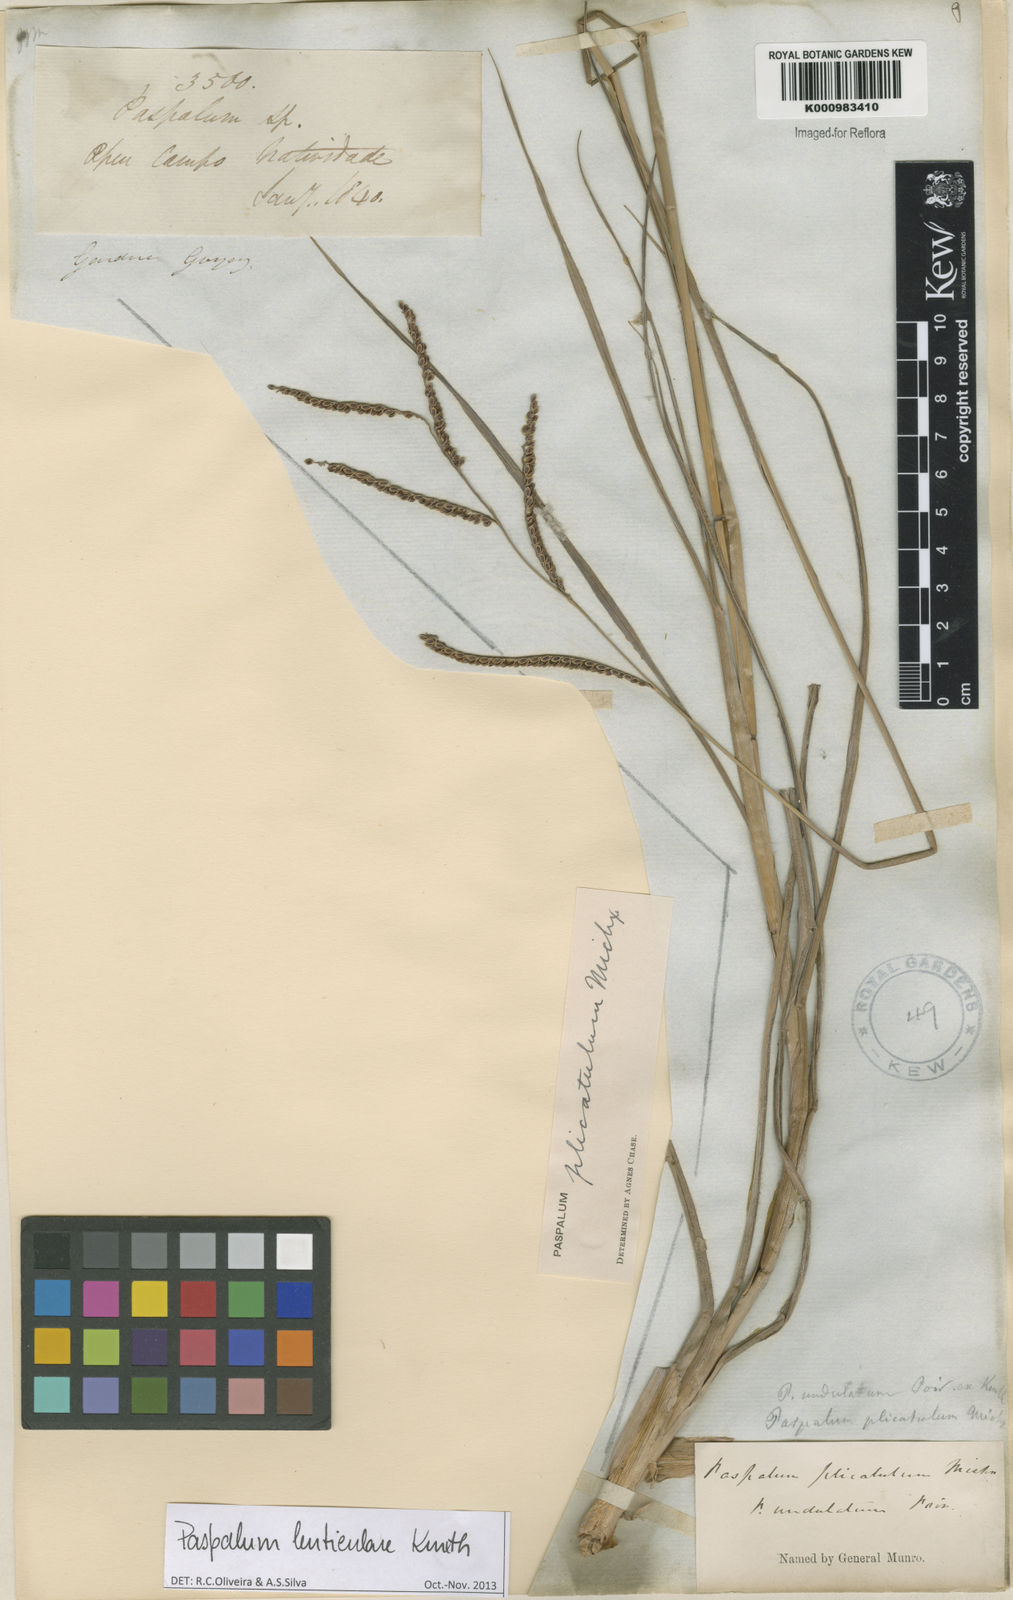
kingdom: Plantae
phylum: Tracheophyta
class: Liliopsida
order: Poales
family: Poaceae
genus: Paspalum
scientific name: Paspalum plicatulum
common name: Top paspalum
